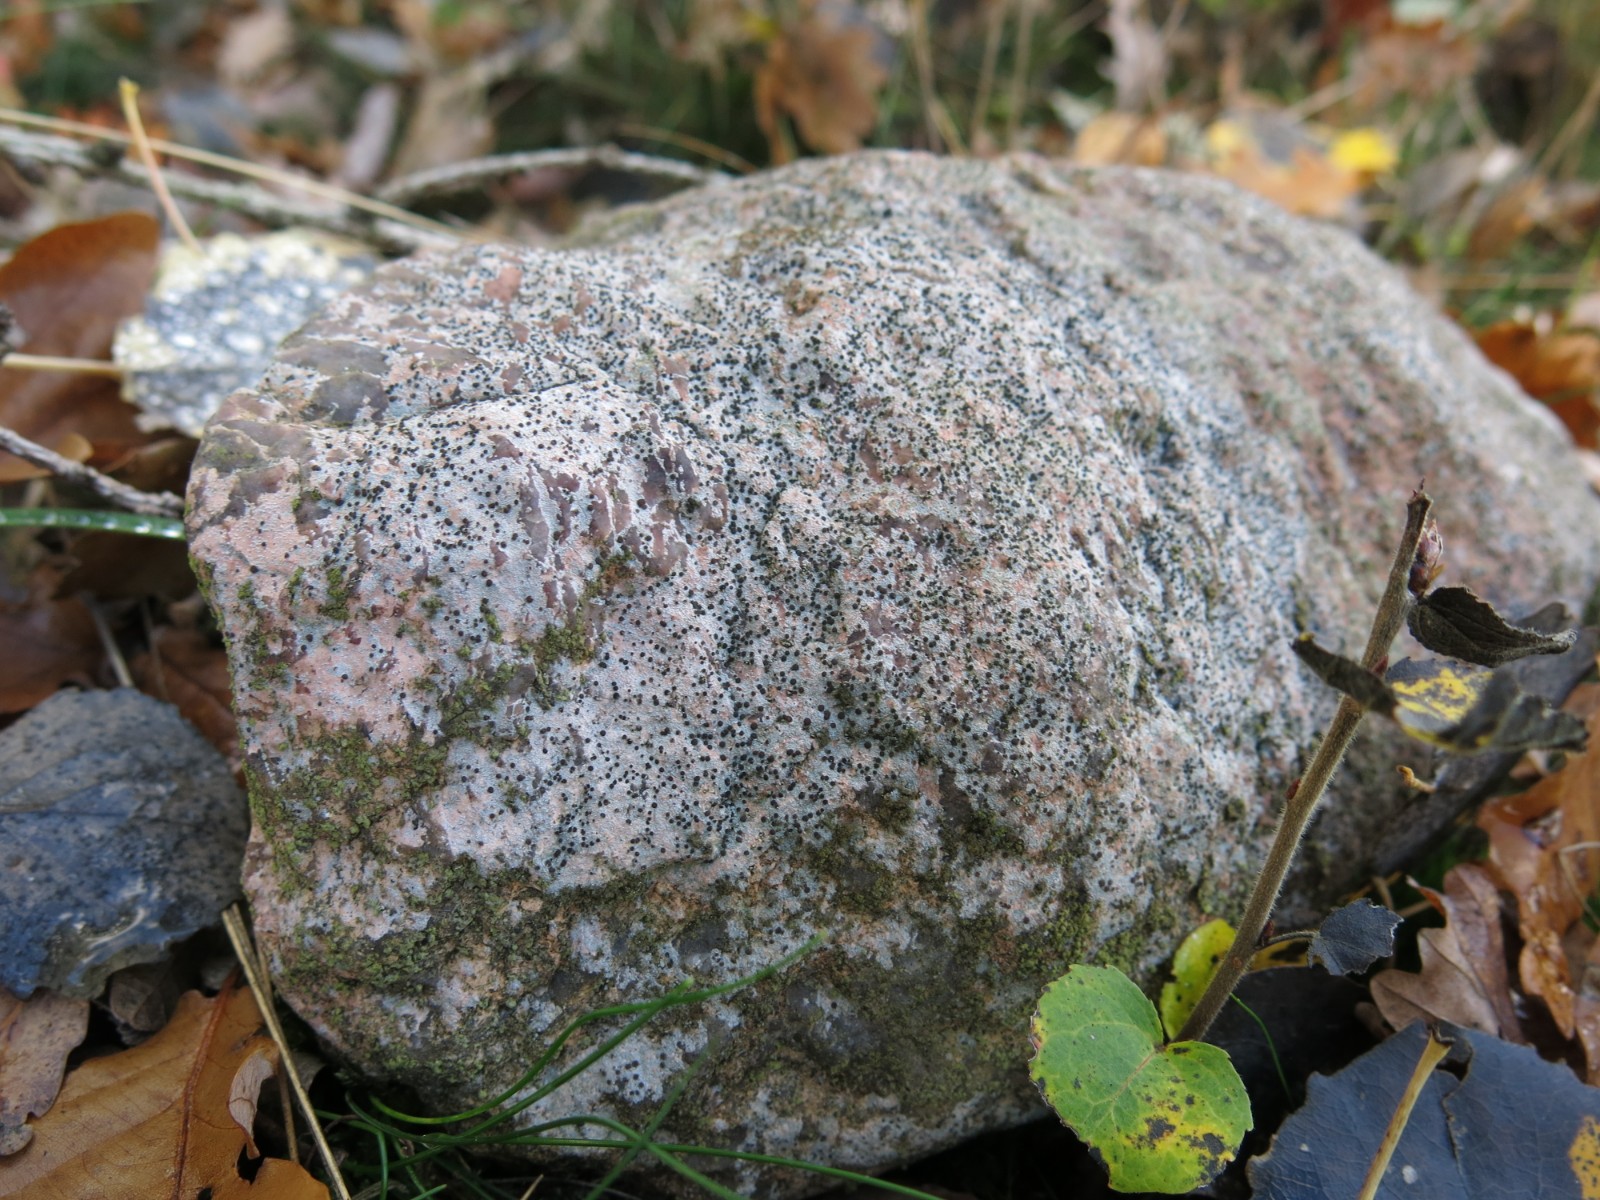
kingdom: Fungi
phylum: Ascomycota
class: Lecanoromycetes
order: Baeomycetales
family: Trapeliaceae
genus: Trapelia
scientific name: Trapelia coarctata
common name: hvidrandet brunskivelav
